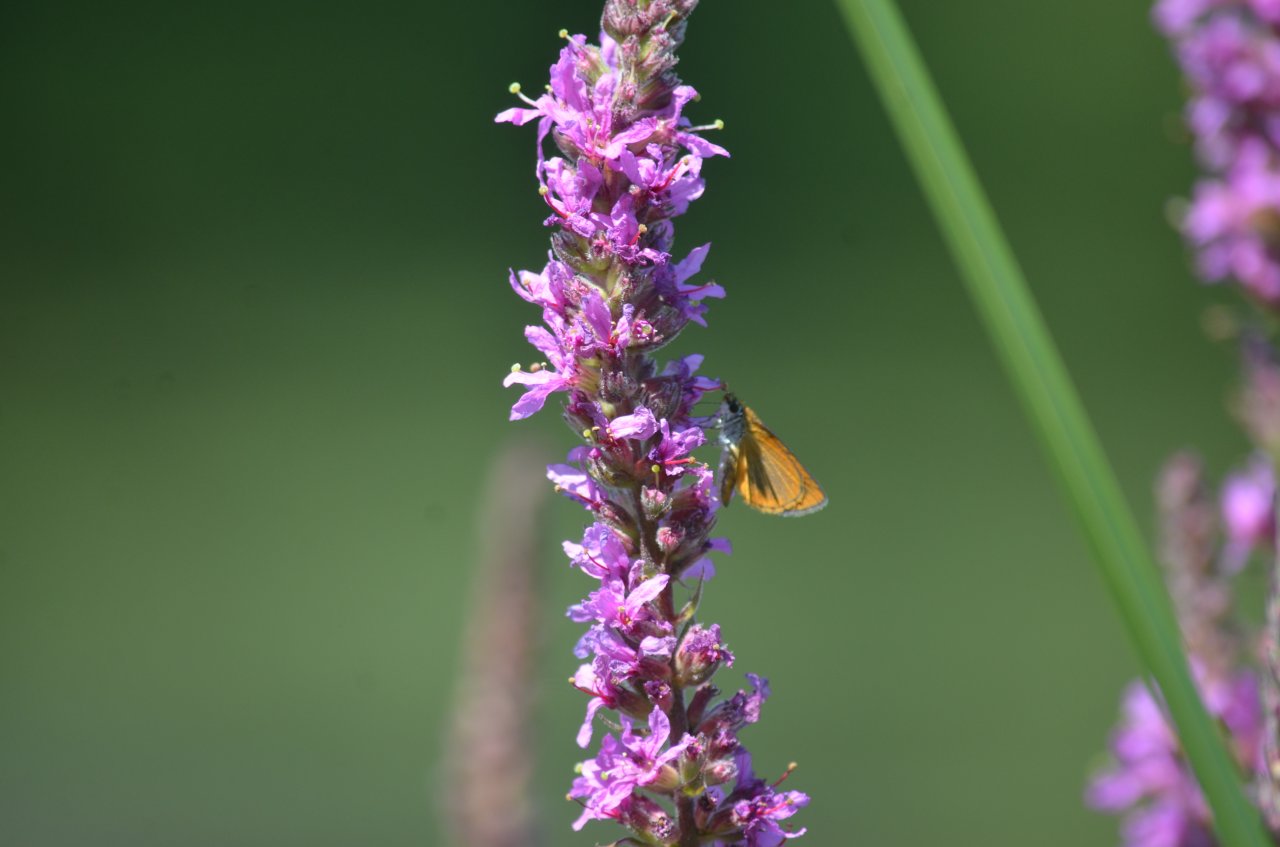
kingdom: Animalia
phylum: Arthropoda
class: Insecta
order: Lepidoptera
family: Hesperiidae
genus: Ancyloxypha
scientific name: Ancyloxypha numitor
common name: Least Skipper
